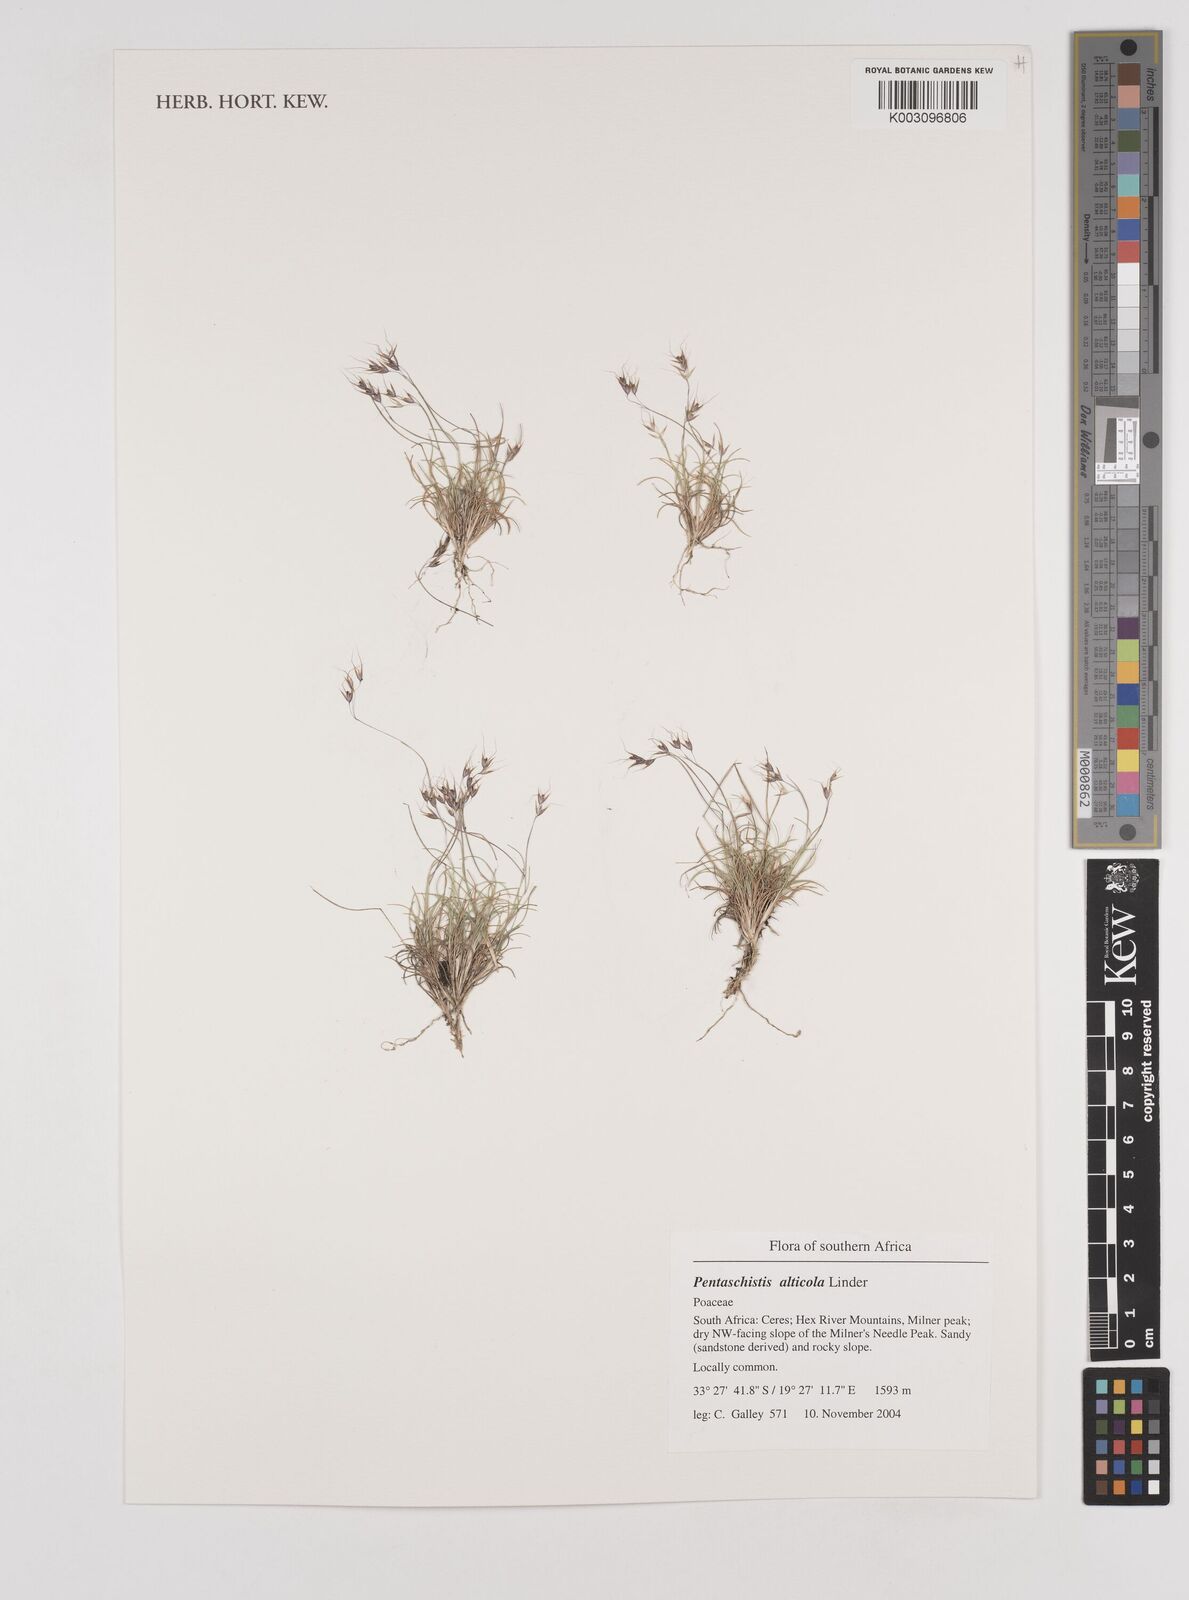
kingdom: Plantae
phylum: Tracheophyta
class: Liliopsida
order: Poales
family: Poaceae
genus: Pentameris
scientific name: Pentameris alticola
